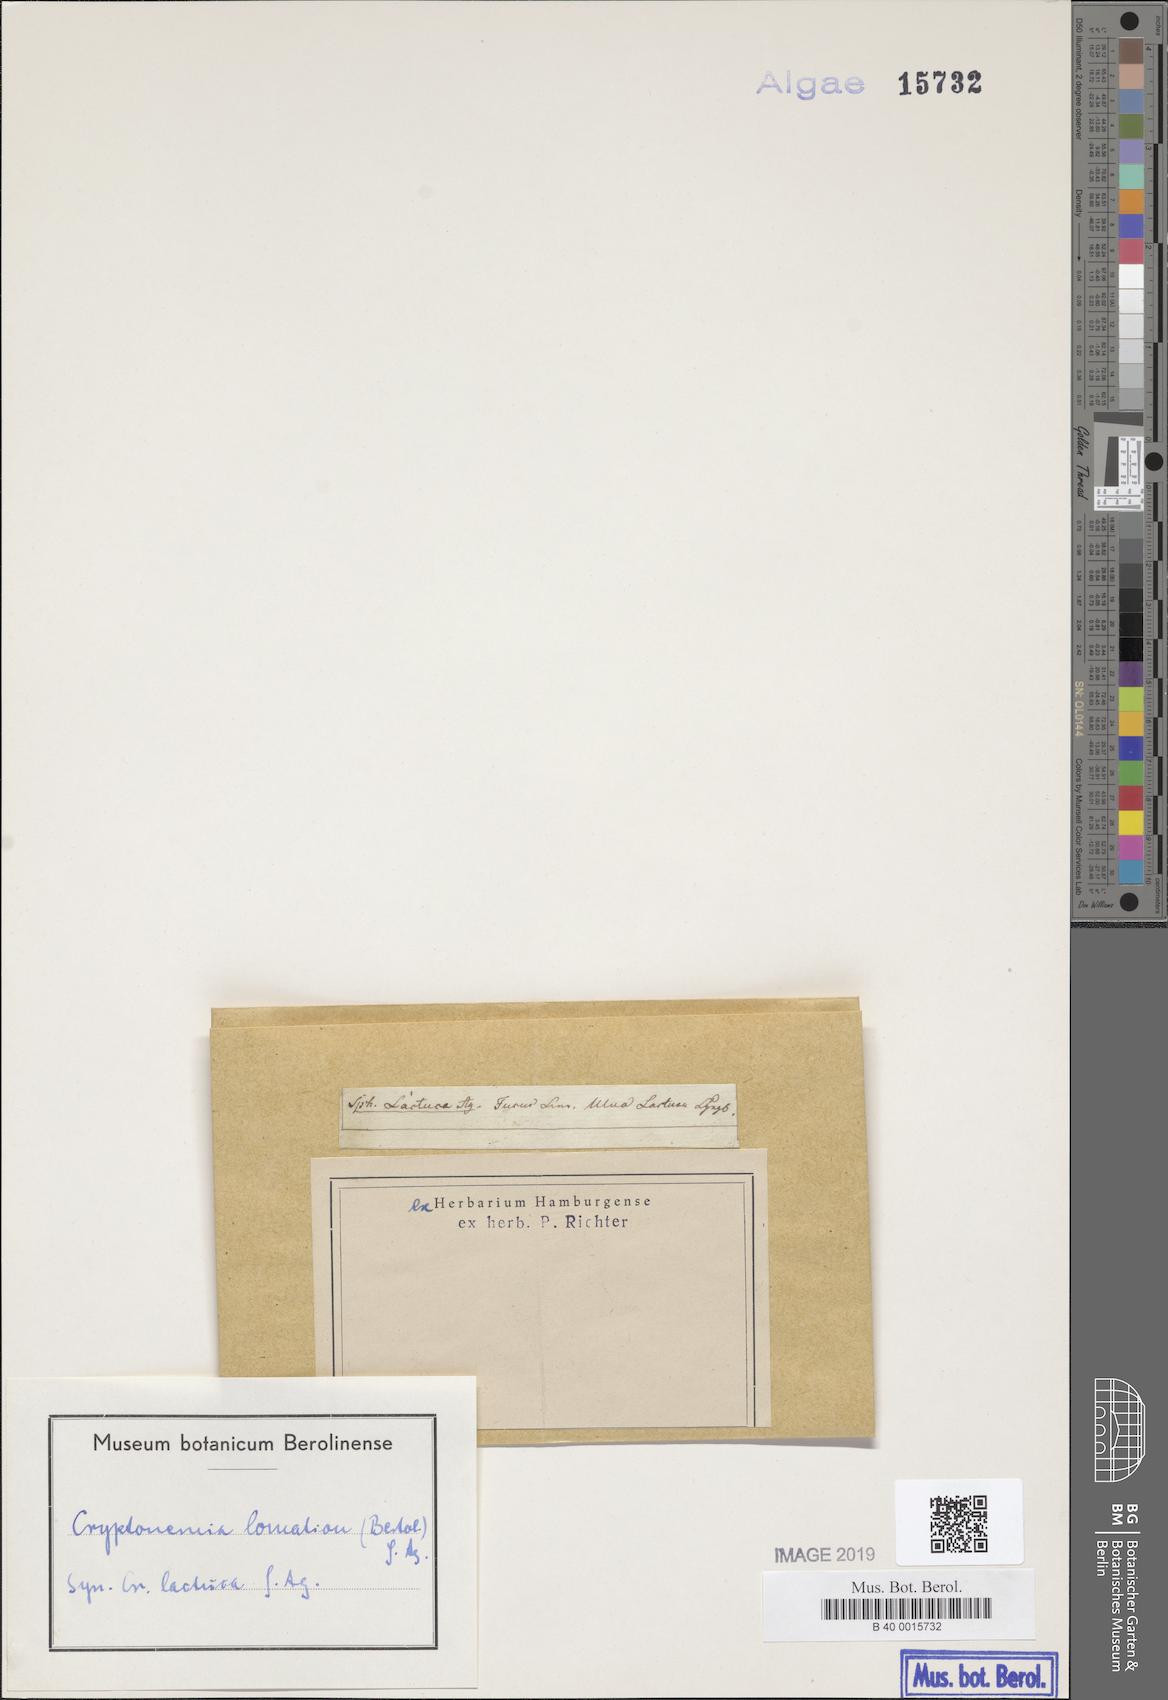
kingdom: Plantae
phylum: Rhodophyta
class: Florideophyceae
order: Halymeniales
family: Halymeniaceae
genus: Cryptonemia
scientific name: Cryptonemia lomation
